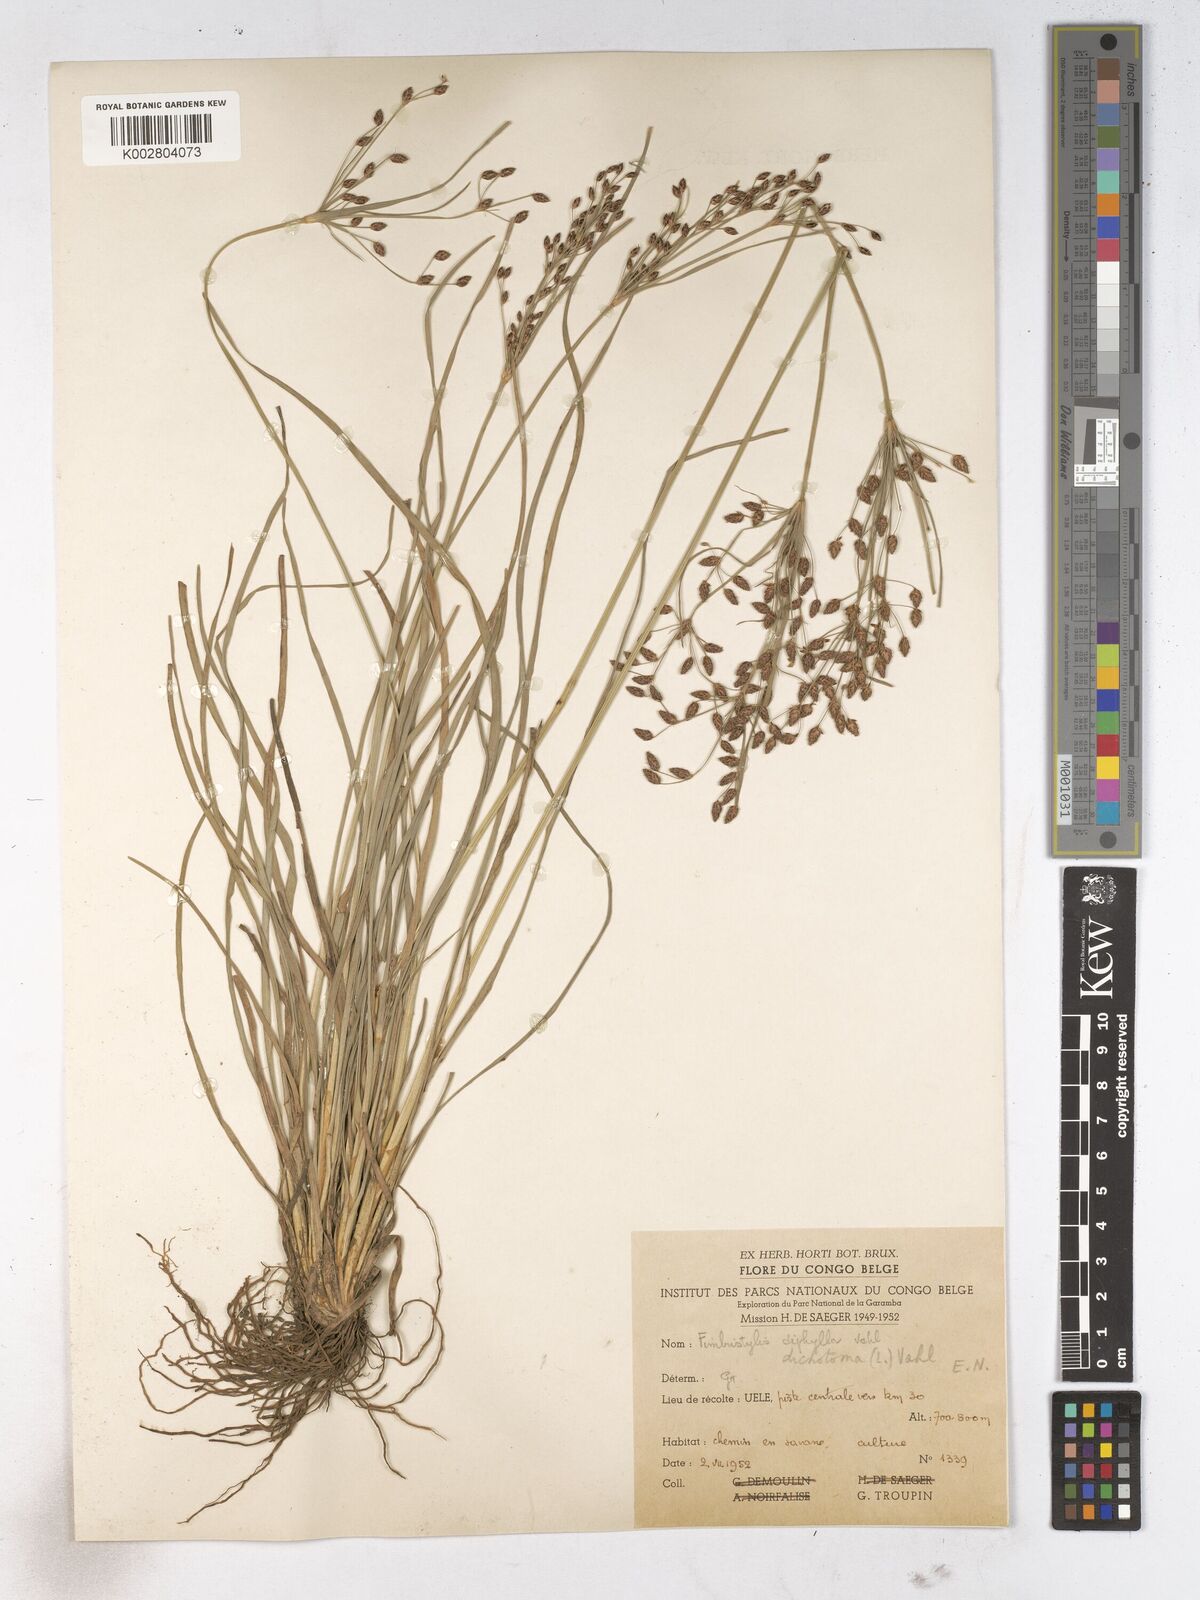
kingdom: Plantae
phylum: Tracheophyta
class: Liliopsida
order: Poales
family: Cyperaceae
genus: Fimbristylis
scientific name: Fimbristylis dichotoma
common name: Forked fimbry
